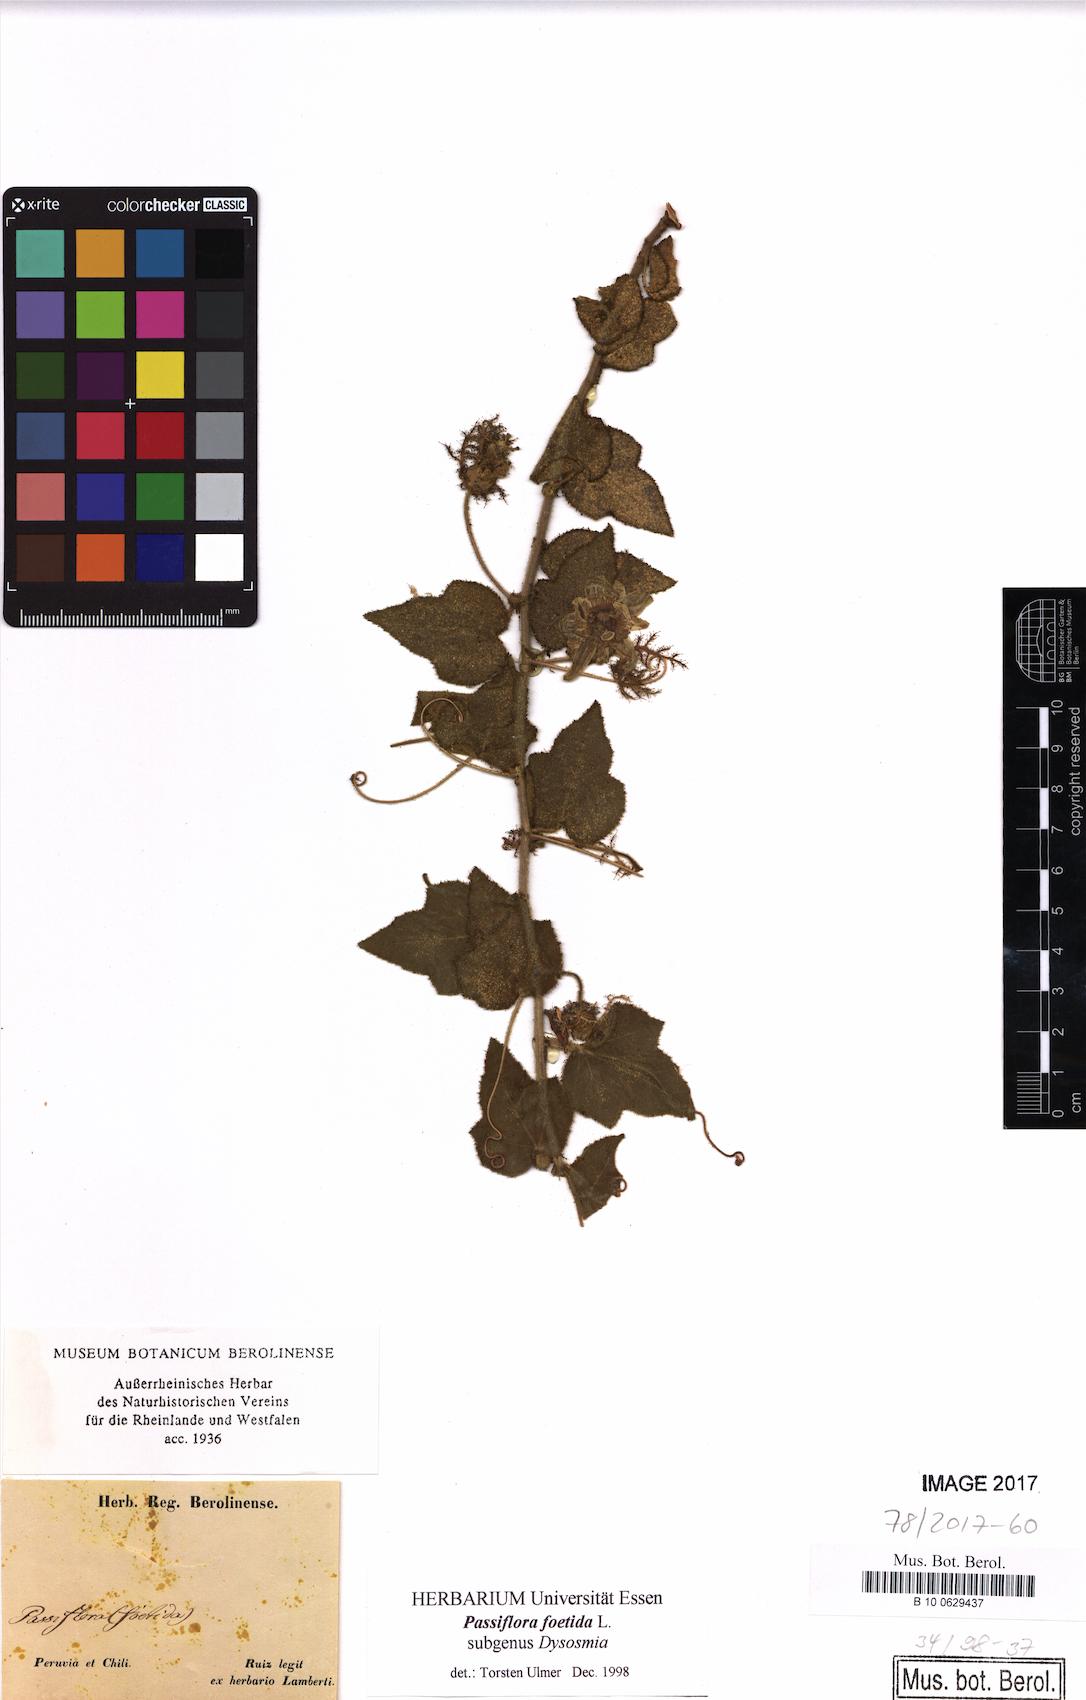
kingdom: Plantae
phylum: Tracheophyta
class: Magnoliopsida
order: Malpighiales
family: Passifloraceae
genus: Passiflora
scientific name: Passiflora foetida
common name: Fetid passionflower
